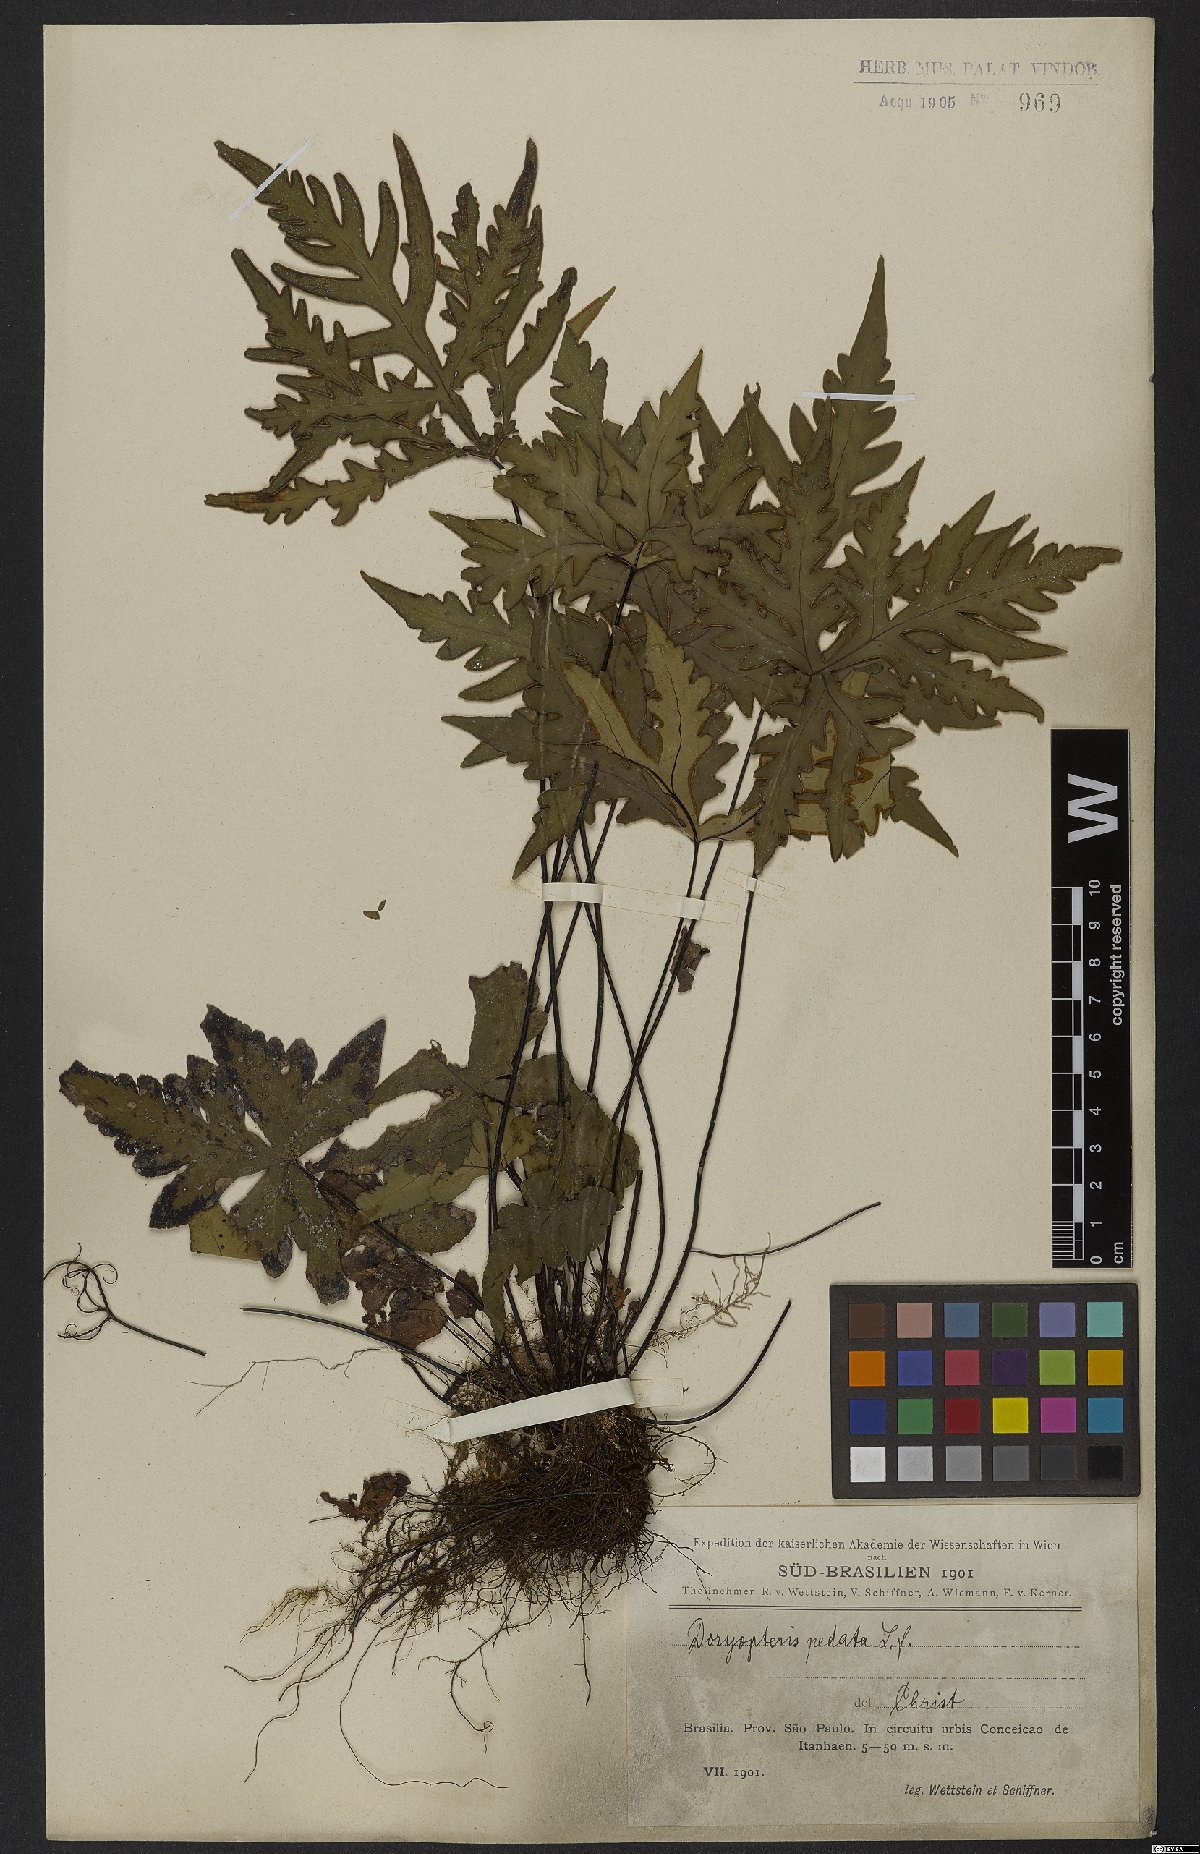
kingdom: Plantae
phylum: Tracheophyta
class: Polypodiopsida
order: Polypodiales
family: Pteridaceae
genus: Doryopteris
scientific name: Doryopteris pedata
